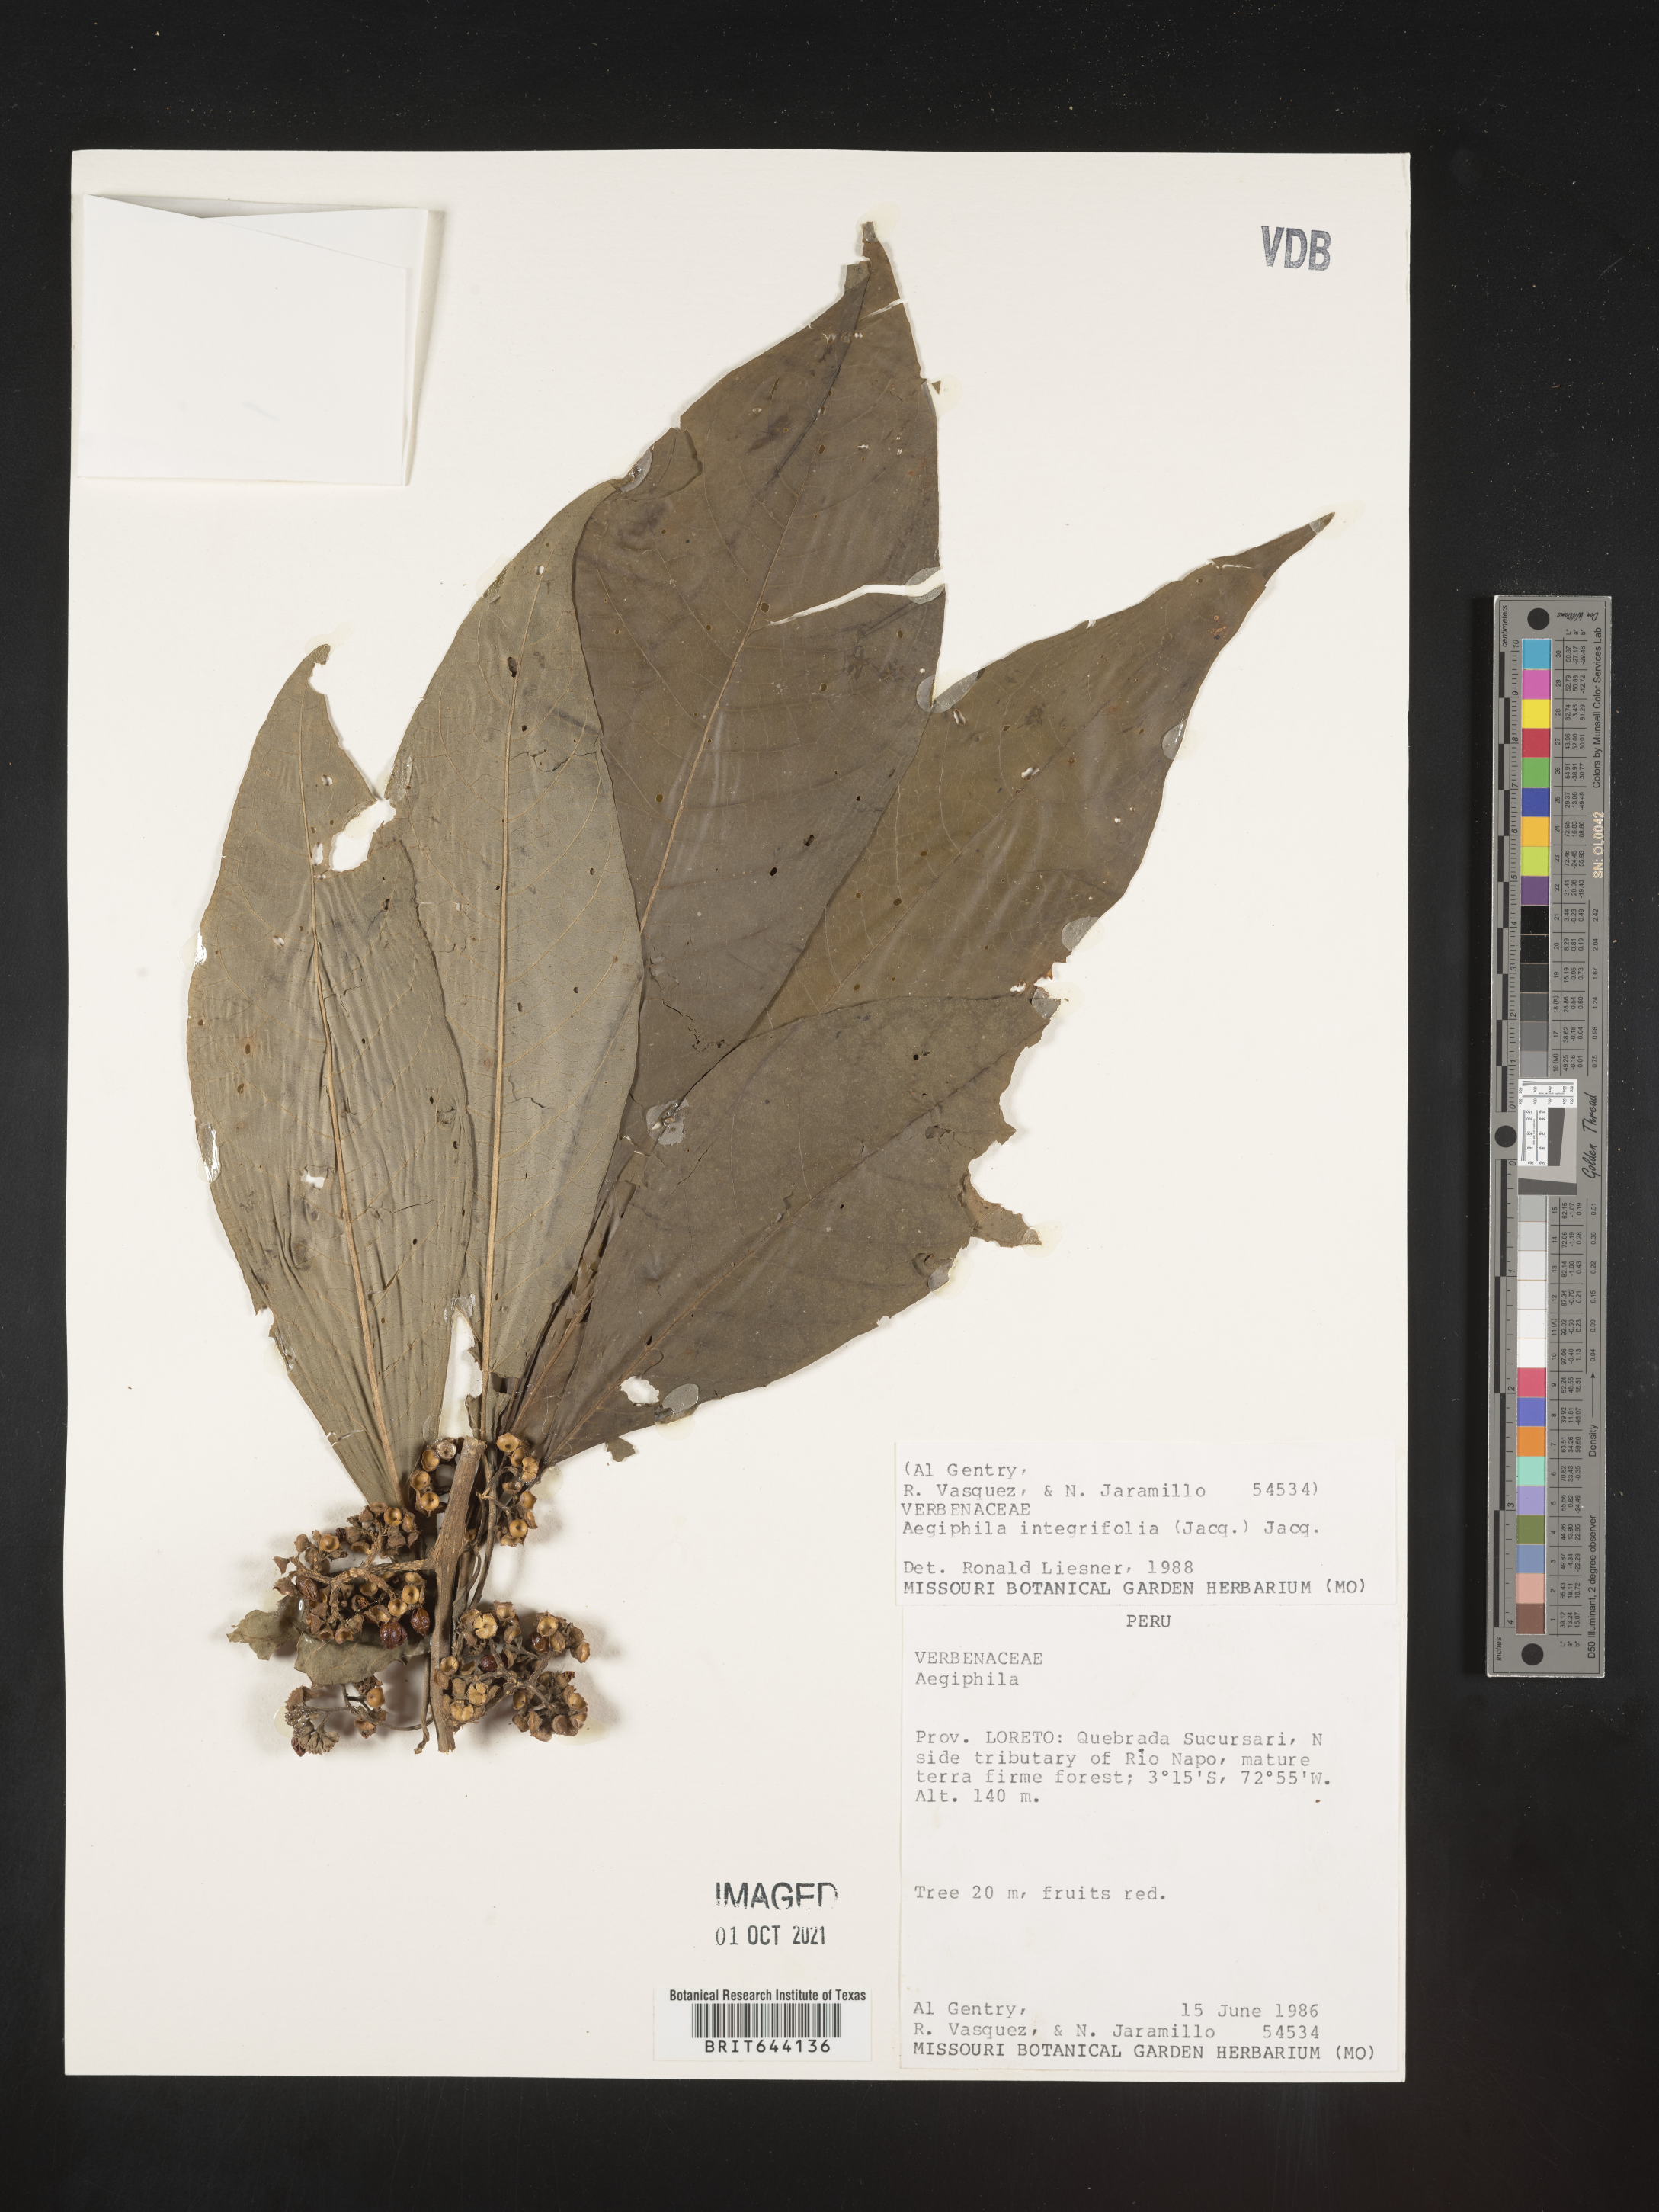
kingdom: Plantae
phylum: Tracheophyta
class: Magnoliopsida
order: Lamiales
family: Lamiaceae
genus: Aegiphila
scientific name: Aegiphila
